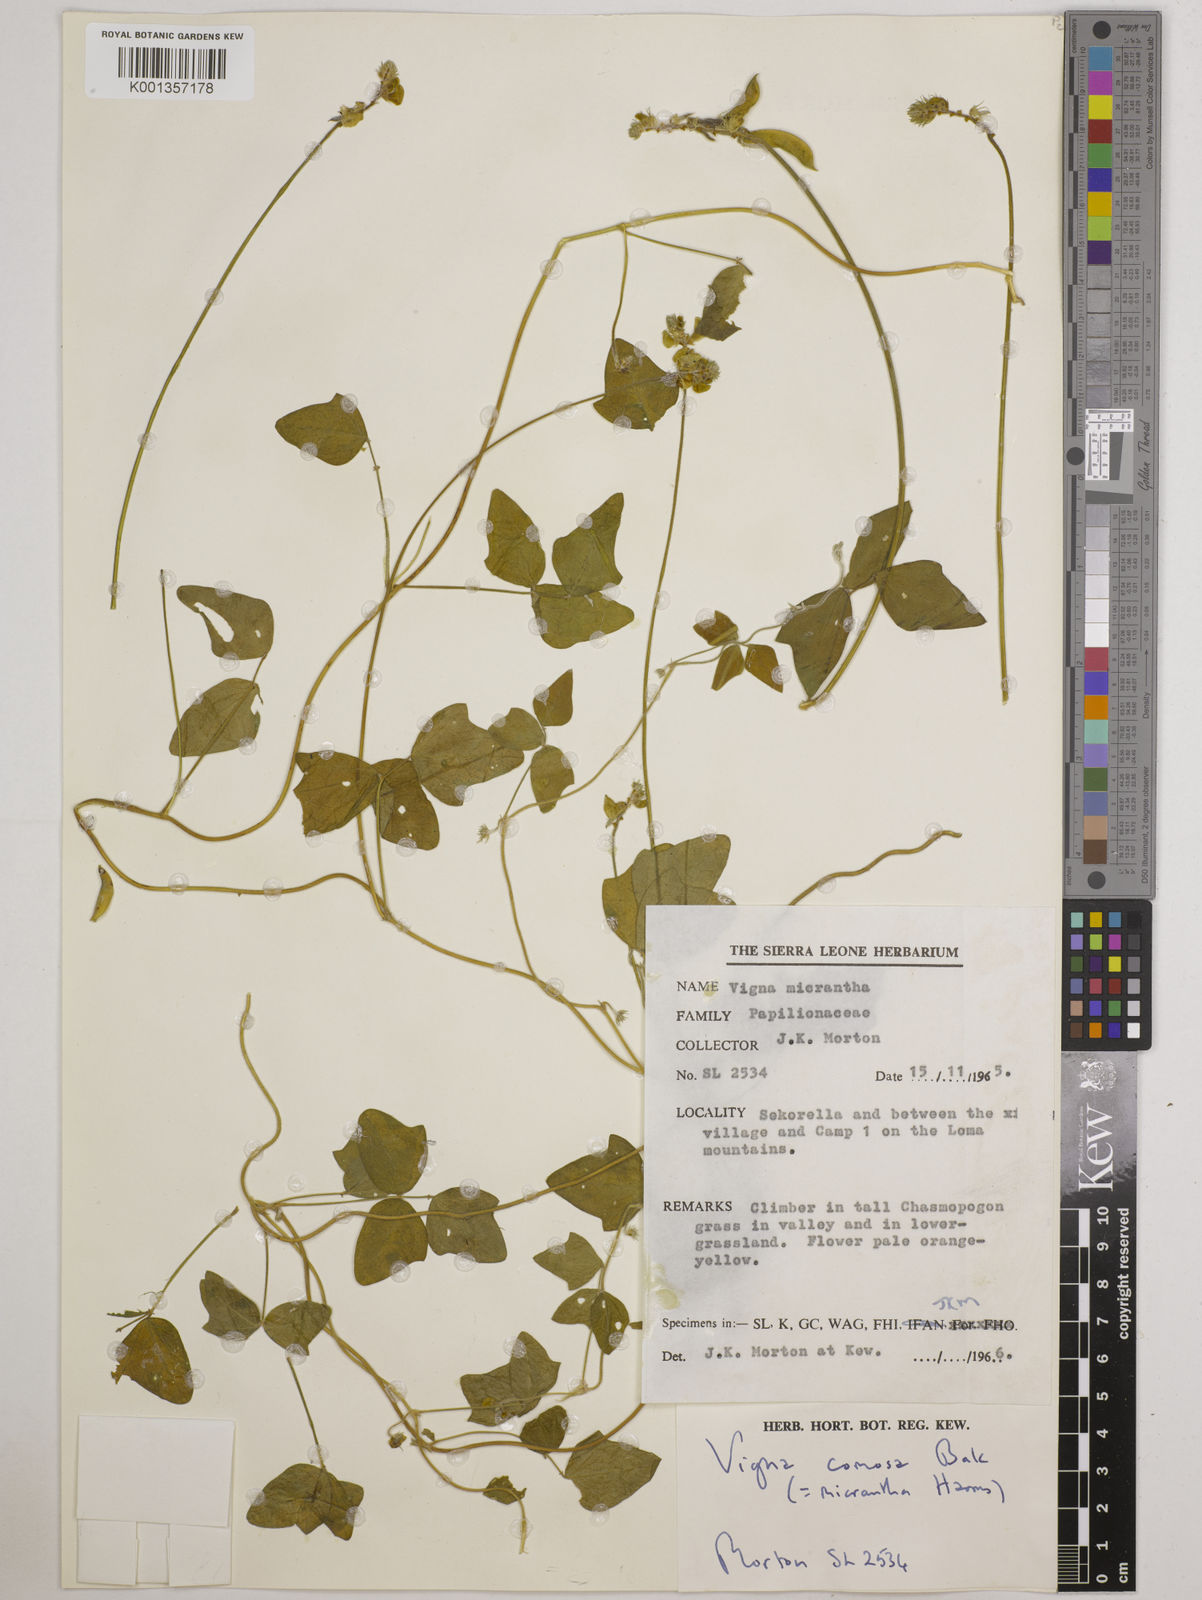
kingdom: Plantae
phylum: Tracheophyta
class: Magnoliopsida
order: Fabales
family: Fabaceae
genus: Vigna
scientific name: Vigna comosa
